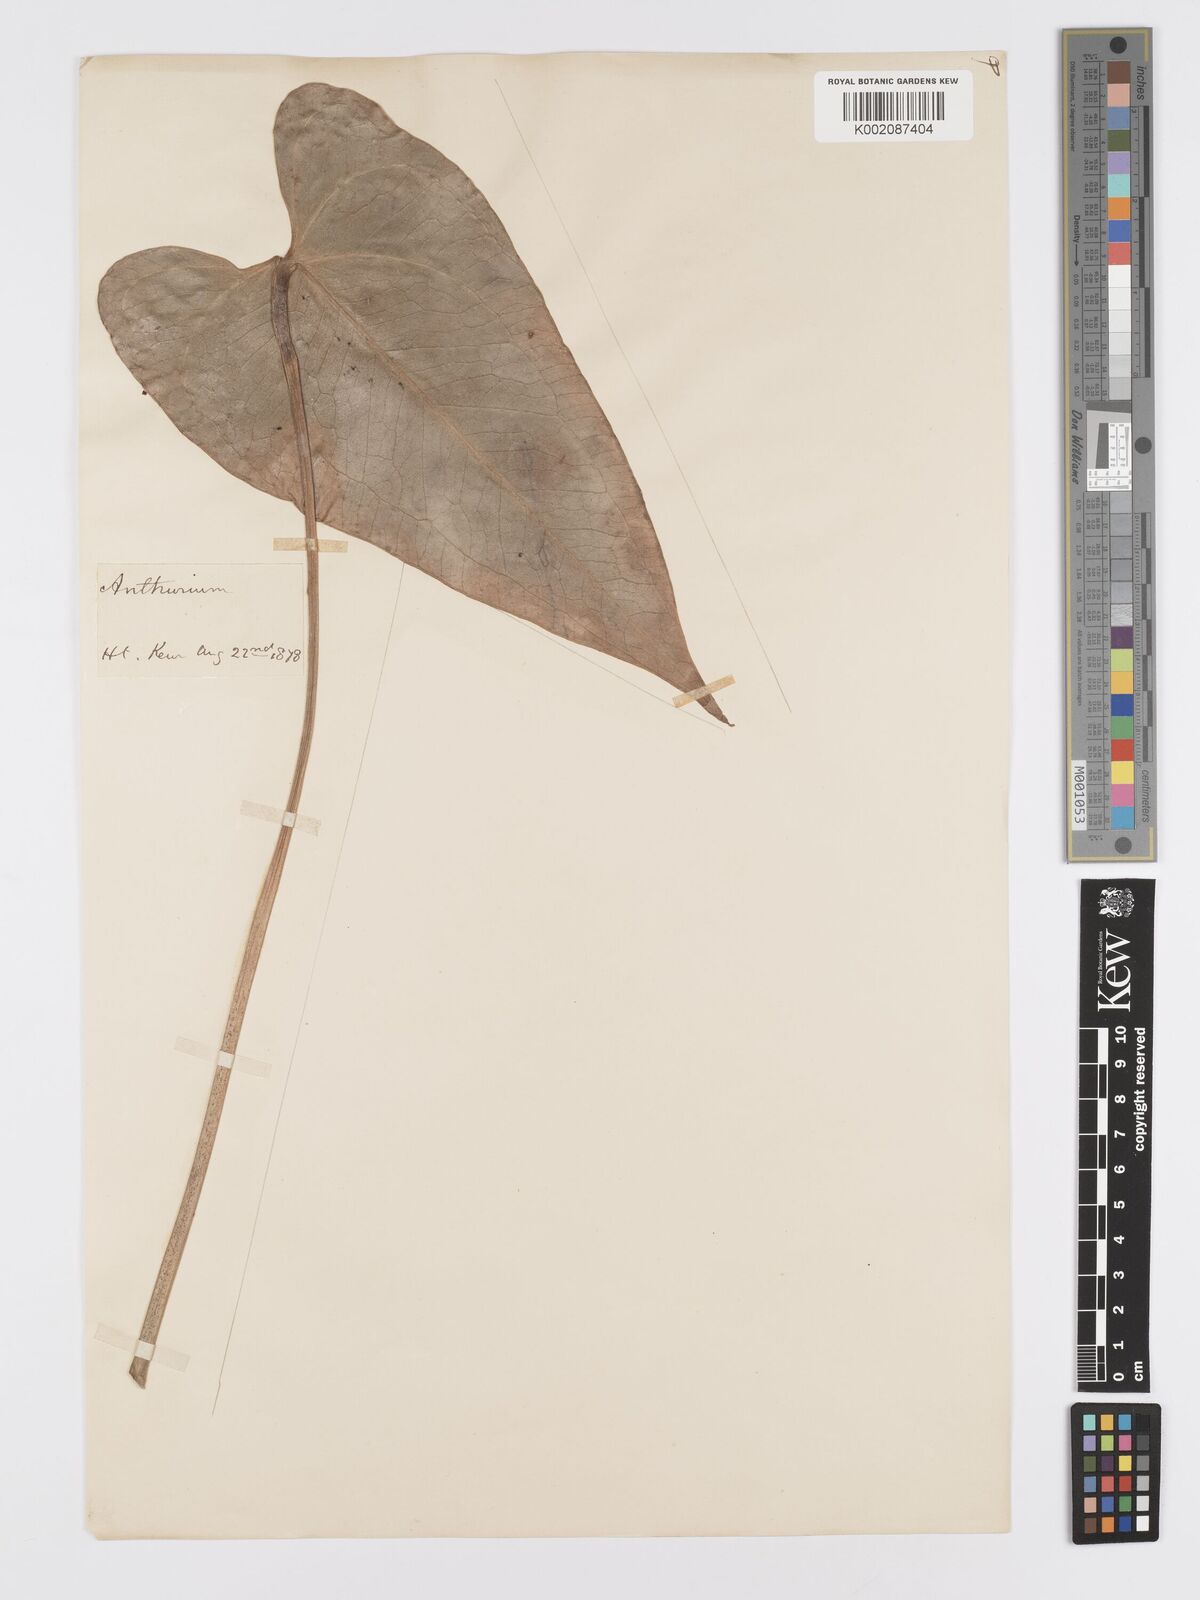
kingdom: Plantae
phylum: Tracheophyta
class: Liliopsida
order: Alismatales
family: Araceae
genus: Anthurium
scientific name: Anthurium cartilagineum
